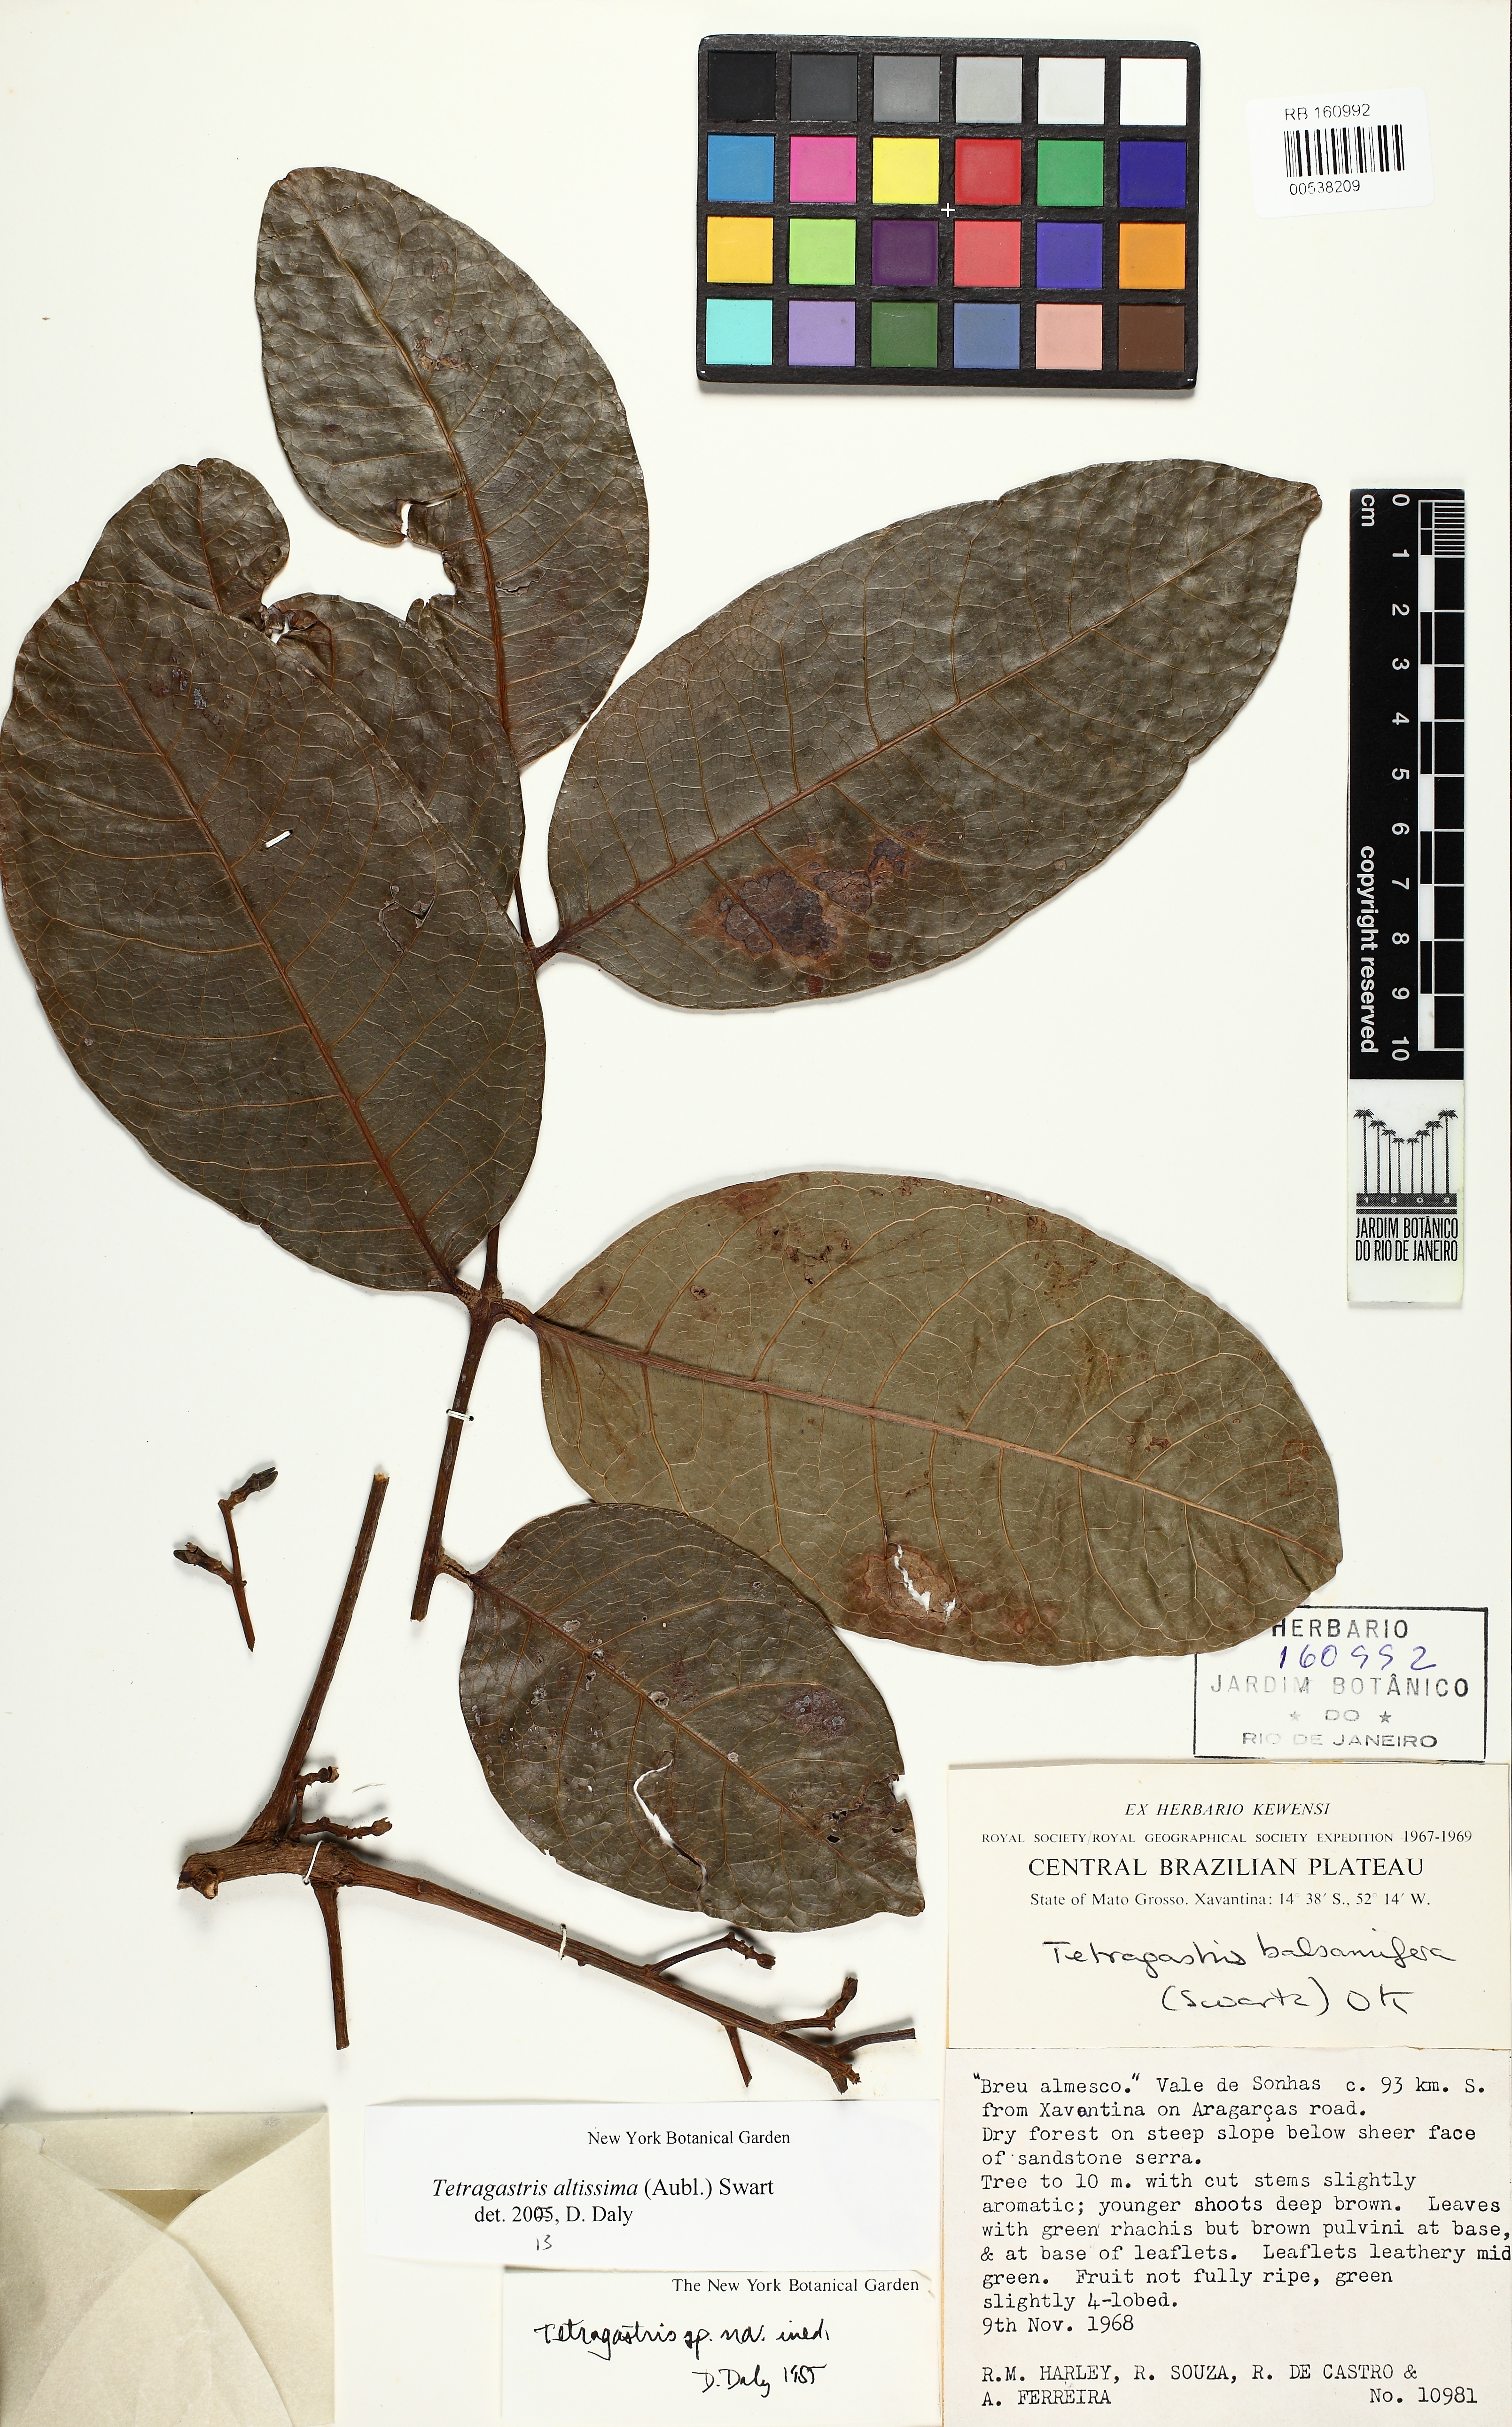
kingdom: Plantae
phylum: Tracheophyta
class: Magnoliopsida
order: Sapindales
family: Burseraceae
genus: Protium
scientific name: Protium cerradicola
